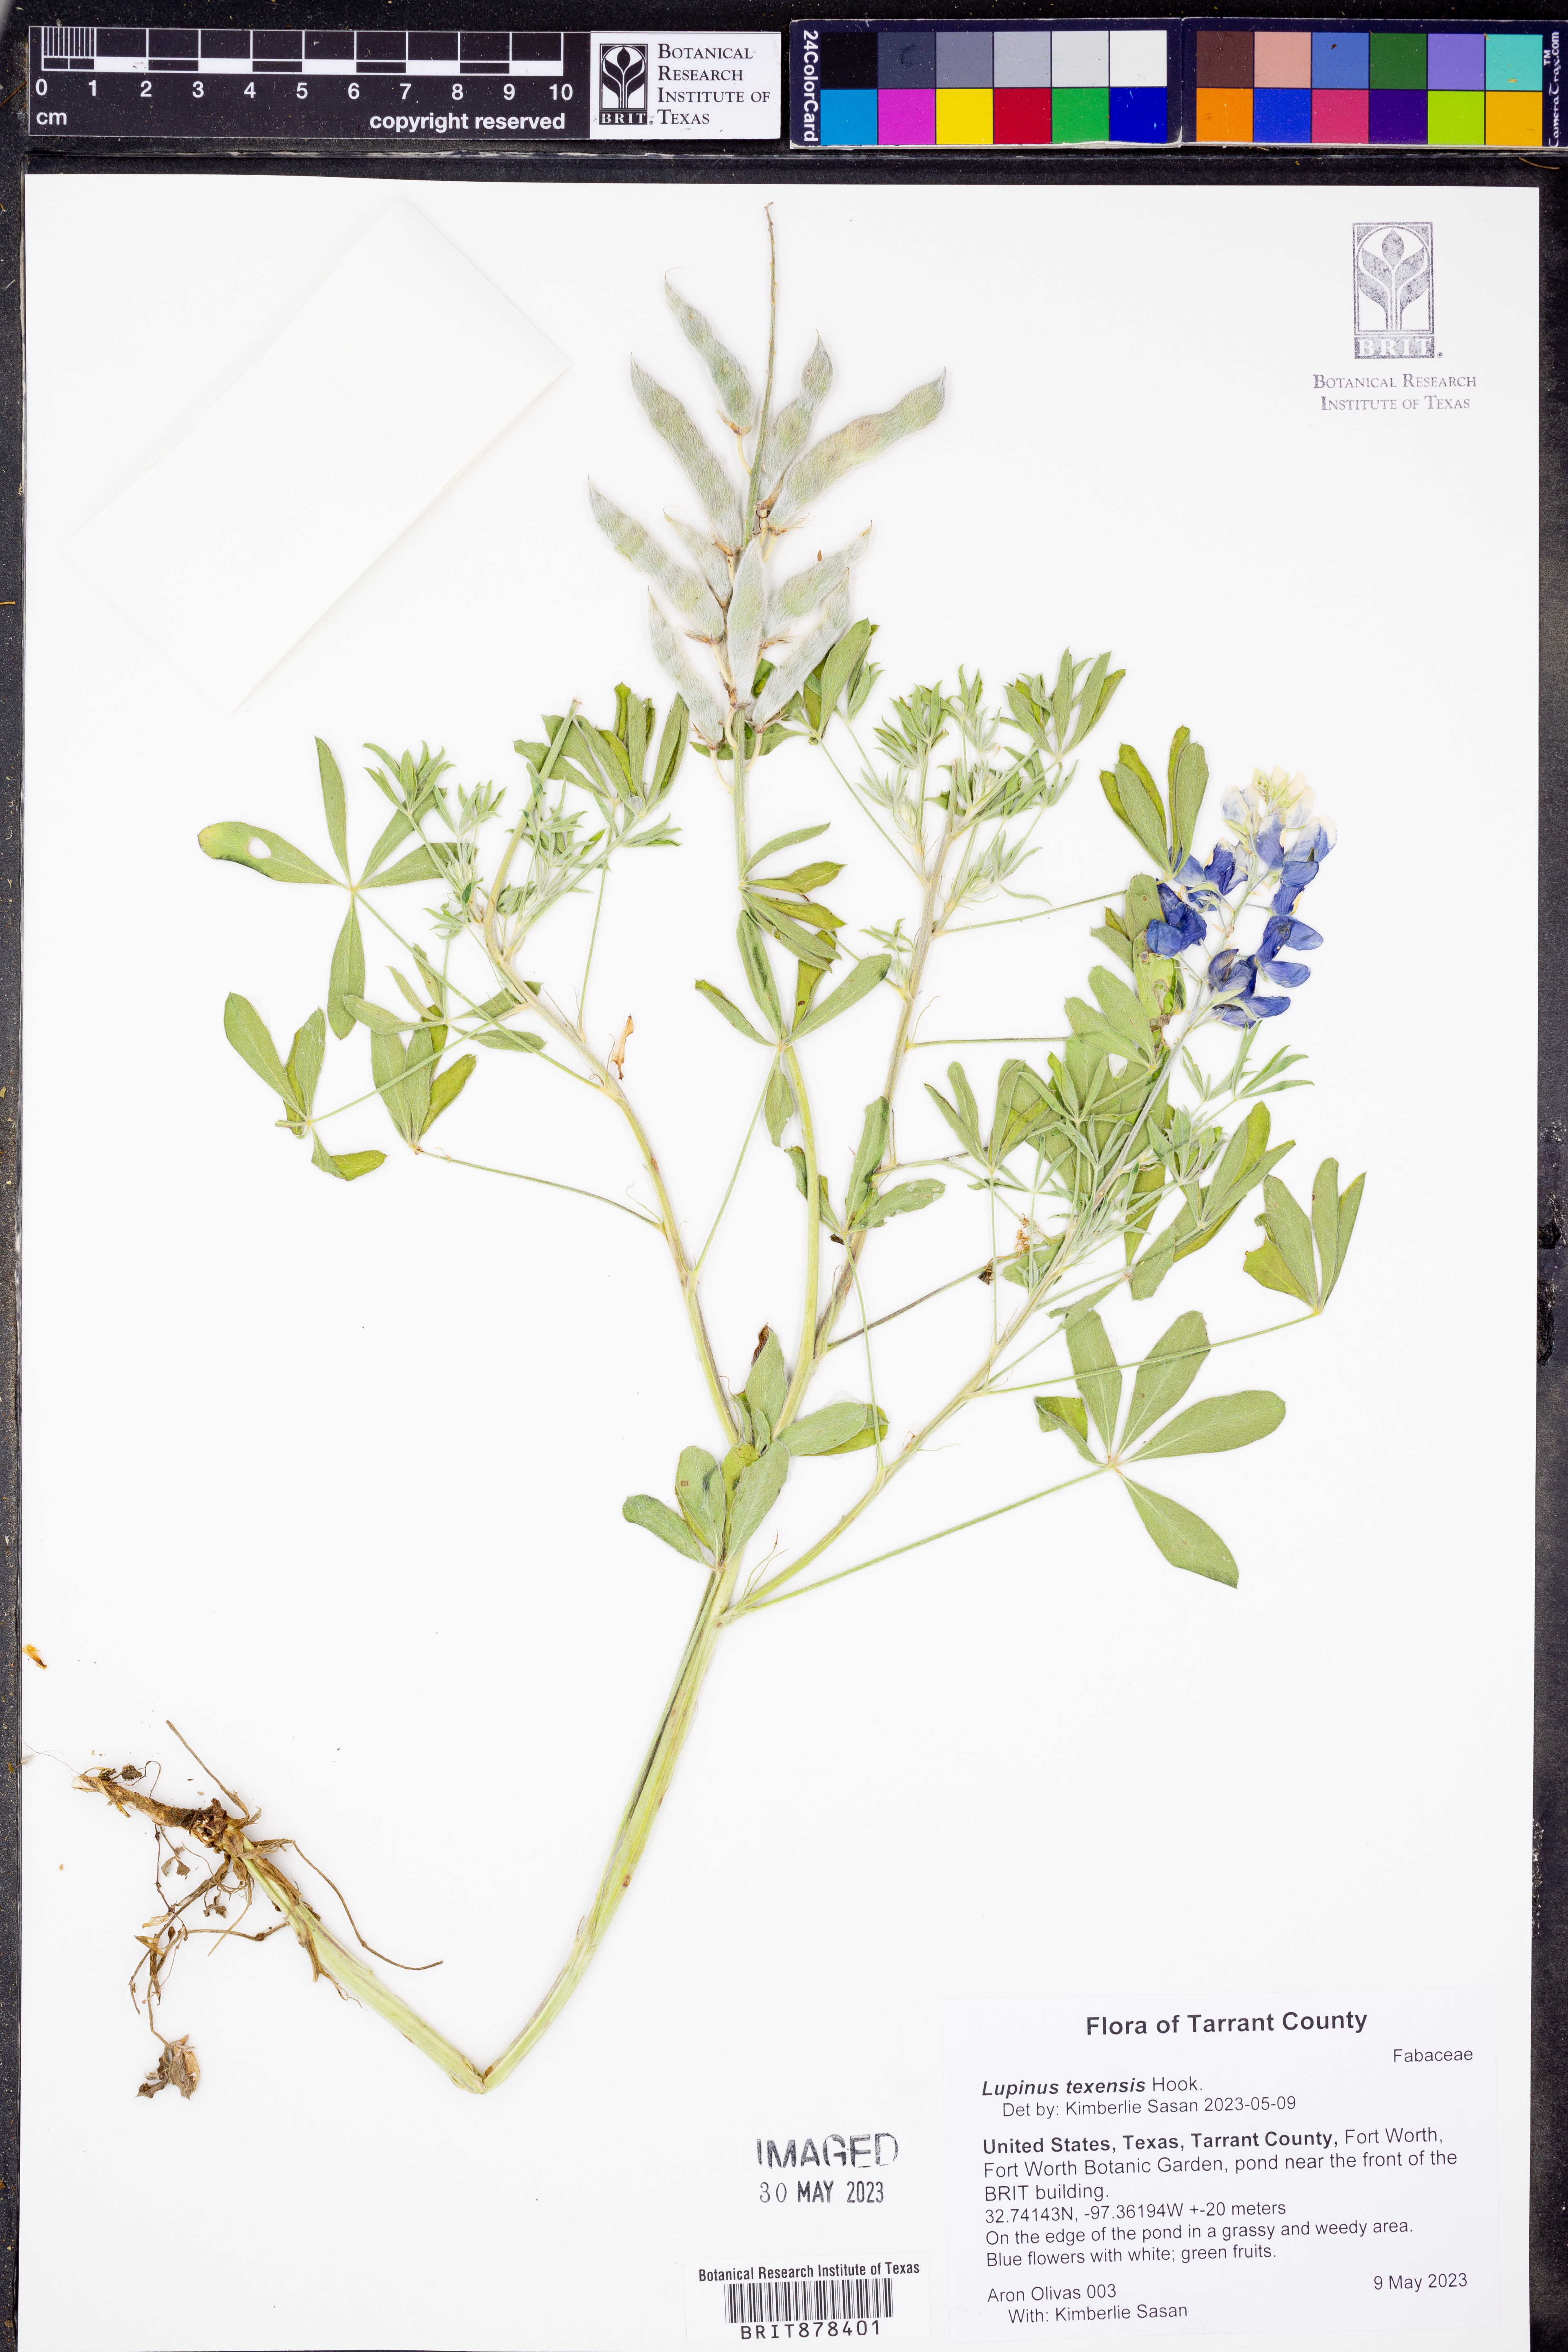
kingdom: Plantae
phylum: Tracheophyta
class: Magnoliopsida
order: Fabales
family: Fabaceae
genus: Lupinus
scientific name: Lupinus texensis
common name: Texas bluebonnet
